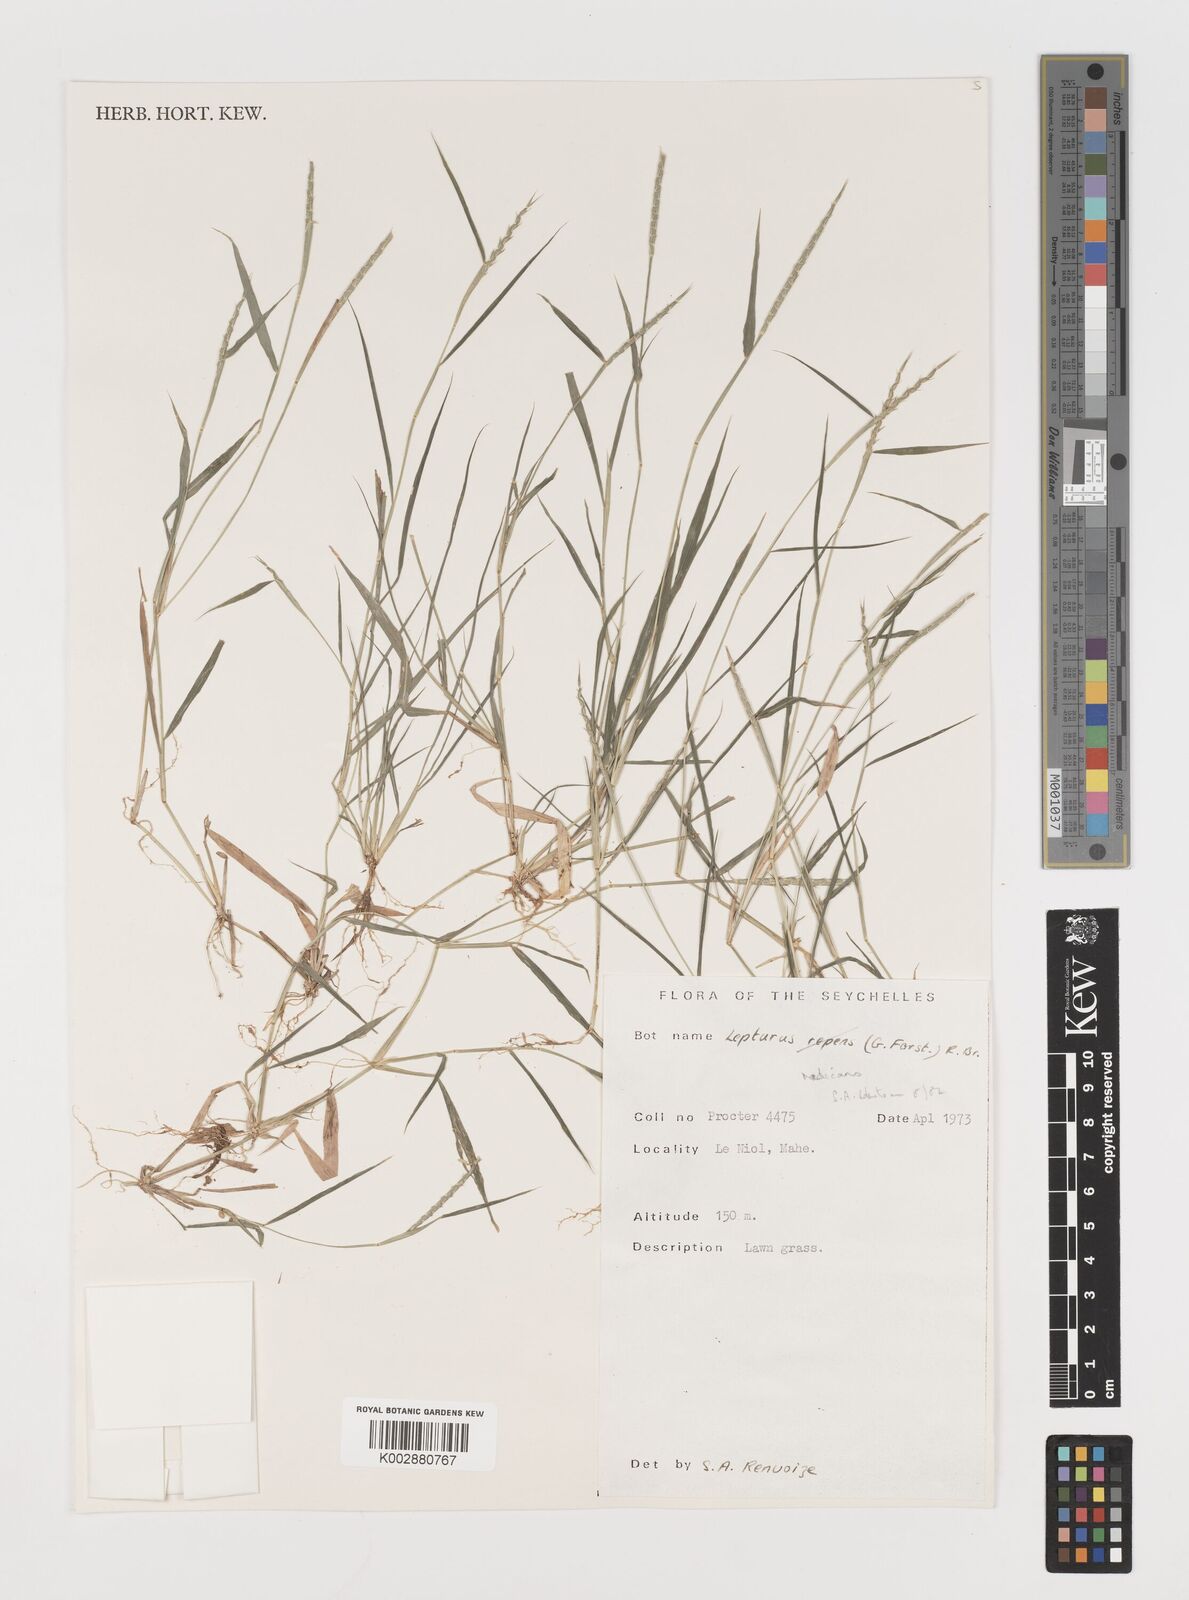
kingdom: Plantae
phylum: Tracheophyta
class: Liliopsida
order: Poales
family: Poaceae
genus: Lepturus
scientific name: Lepturus radicans
